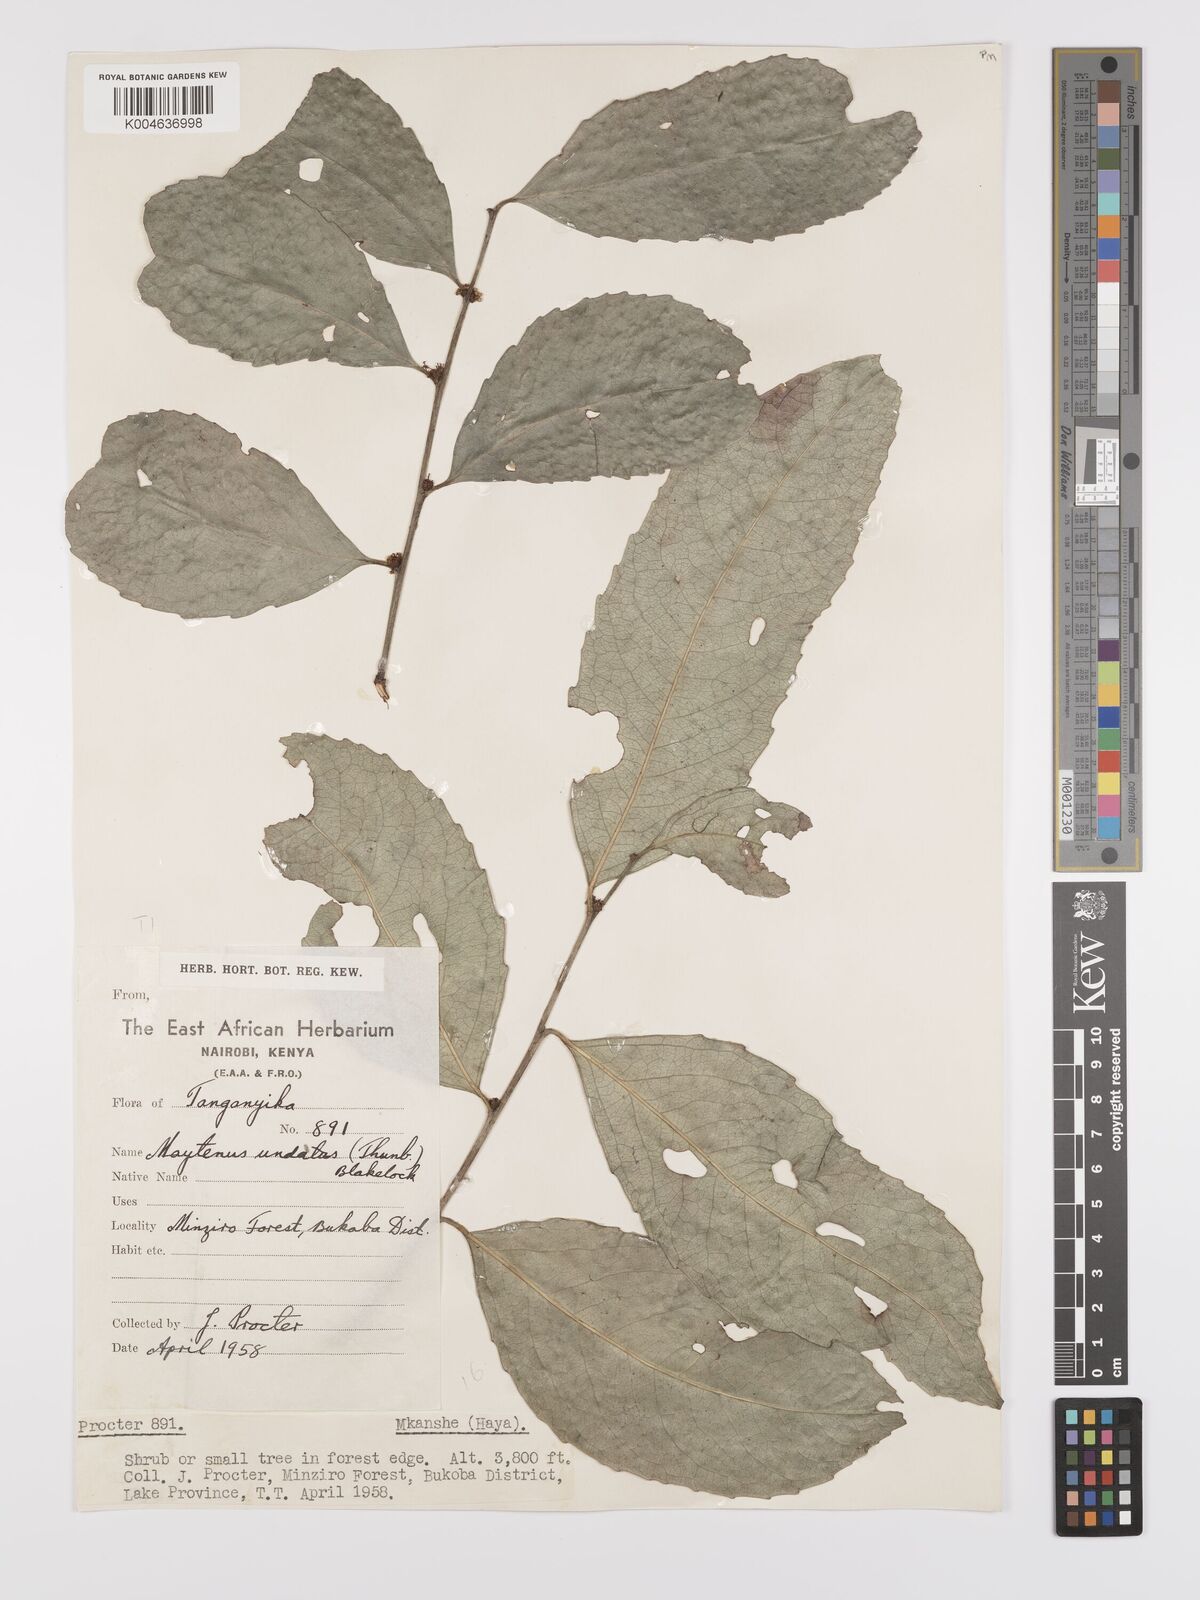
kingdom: Plantae
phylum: Tracheophyta
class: Magnoliopsida
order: Celastrales
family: Celastraceae
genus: Gymnosporia
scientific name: Gymnosporia undata
